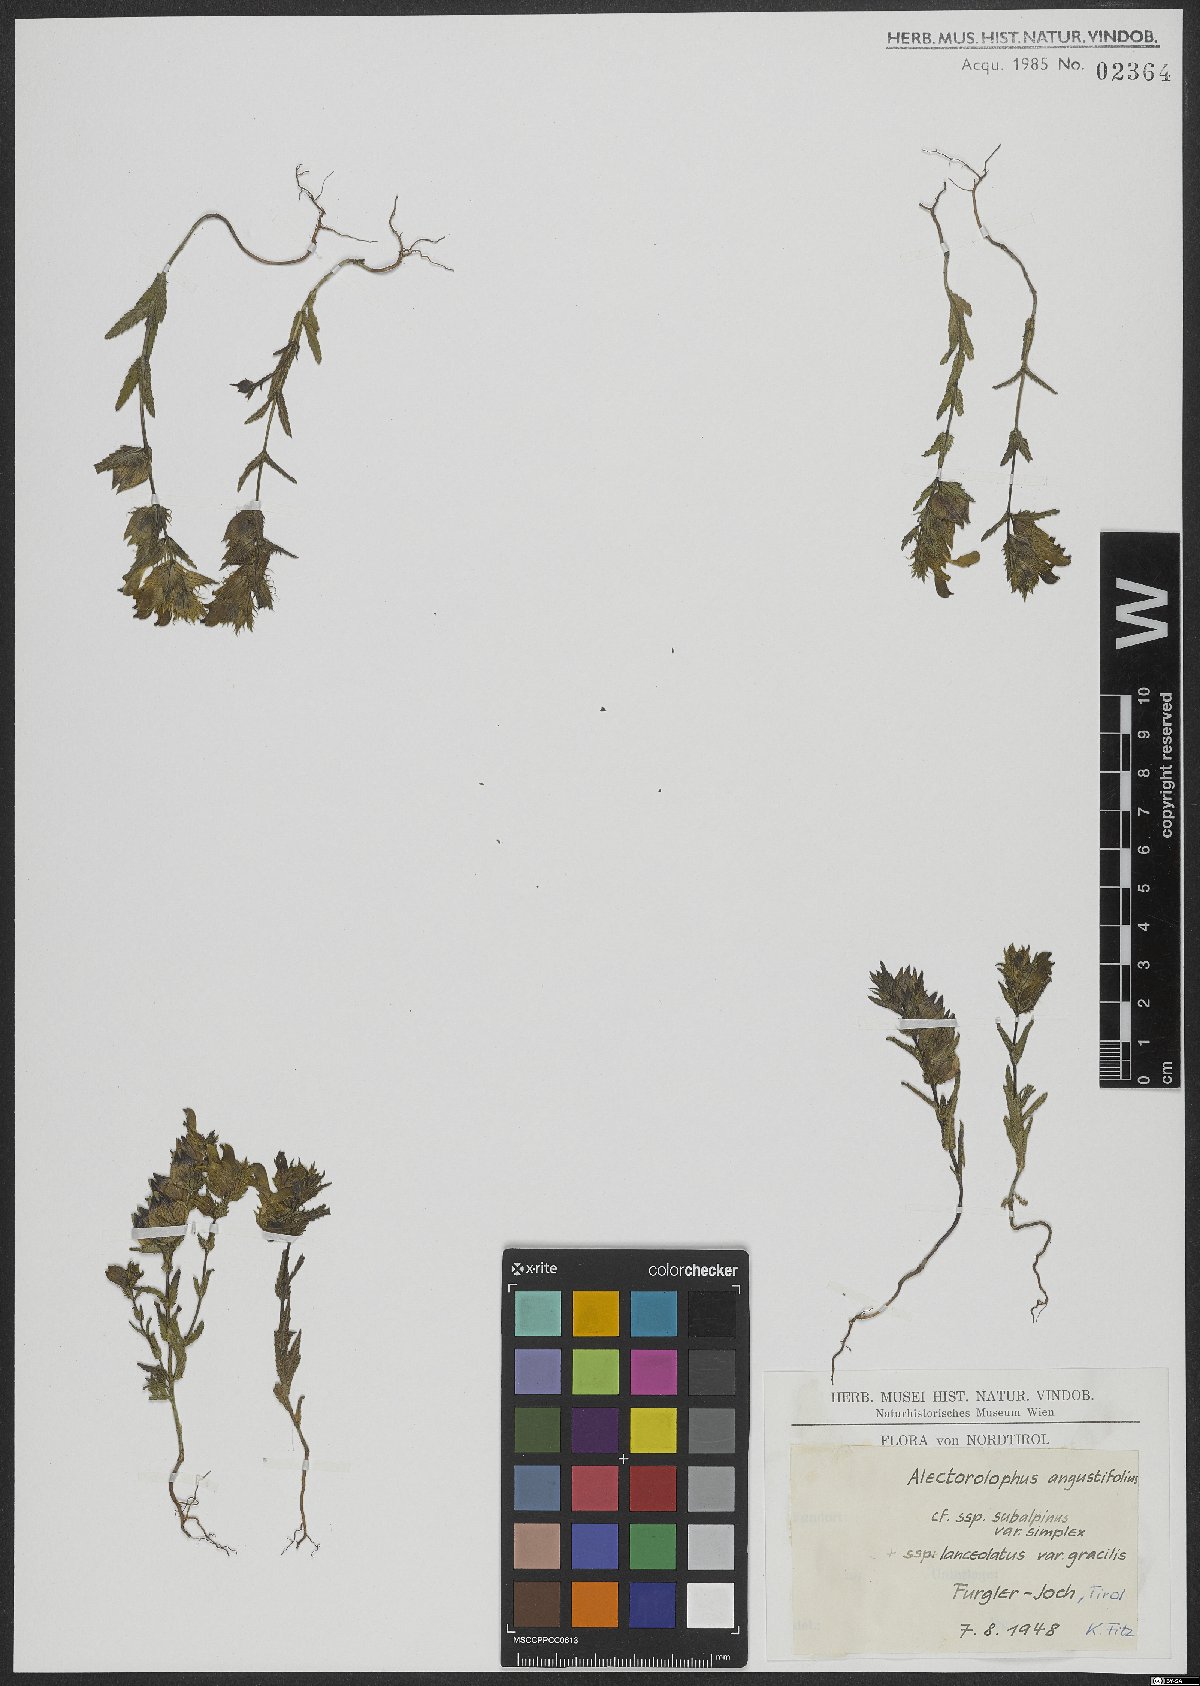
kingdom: Plantae
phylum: Tracheophyta
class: Magnoliopsida
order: Lamiales
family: Orobanchaceae
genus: Rhinanthus
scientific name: Rhinanthus glacialis
